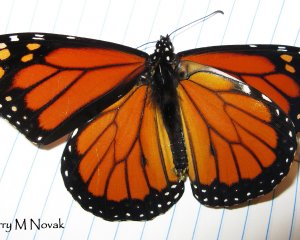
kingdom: Animalia
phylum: Arthropoda
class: Insecta
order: Lepidoptera
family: Nymphalidae
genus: Danaus
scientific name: Danaus plexippus
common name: Monarch
